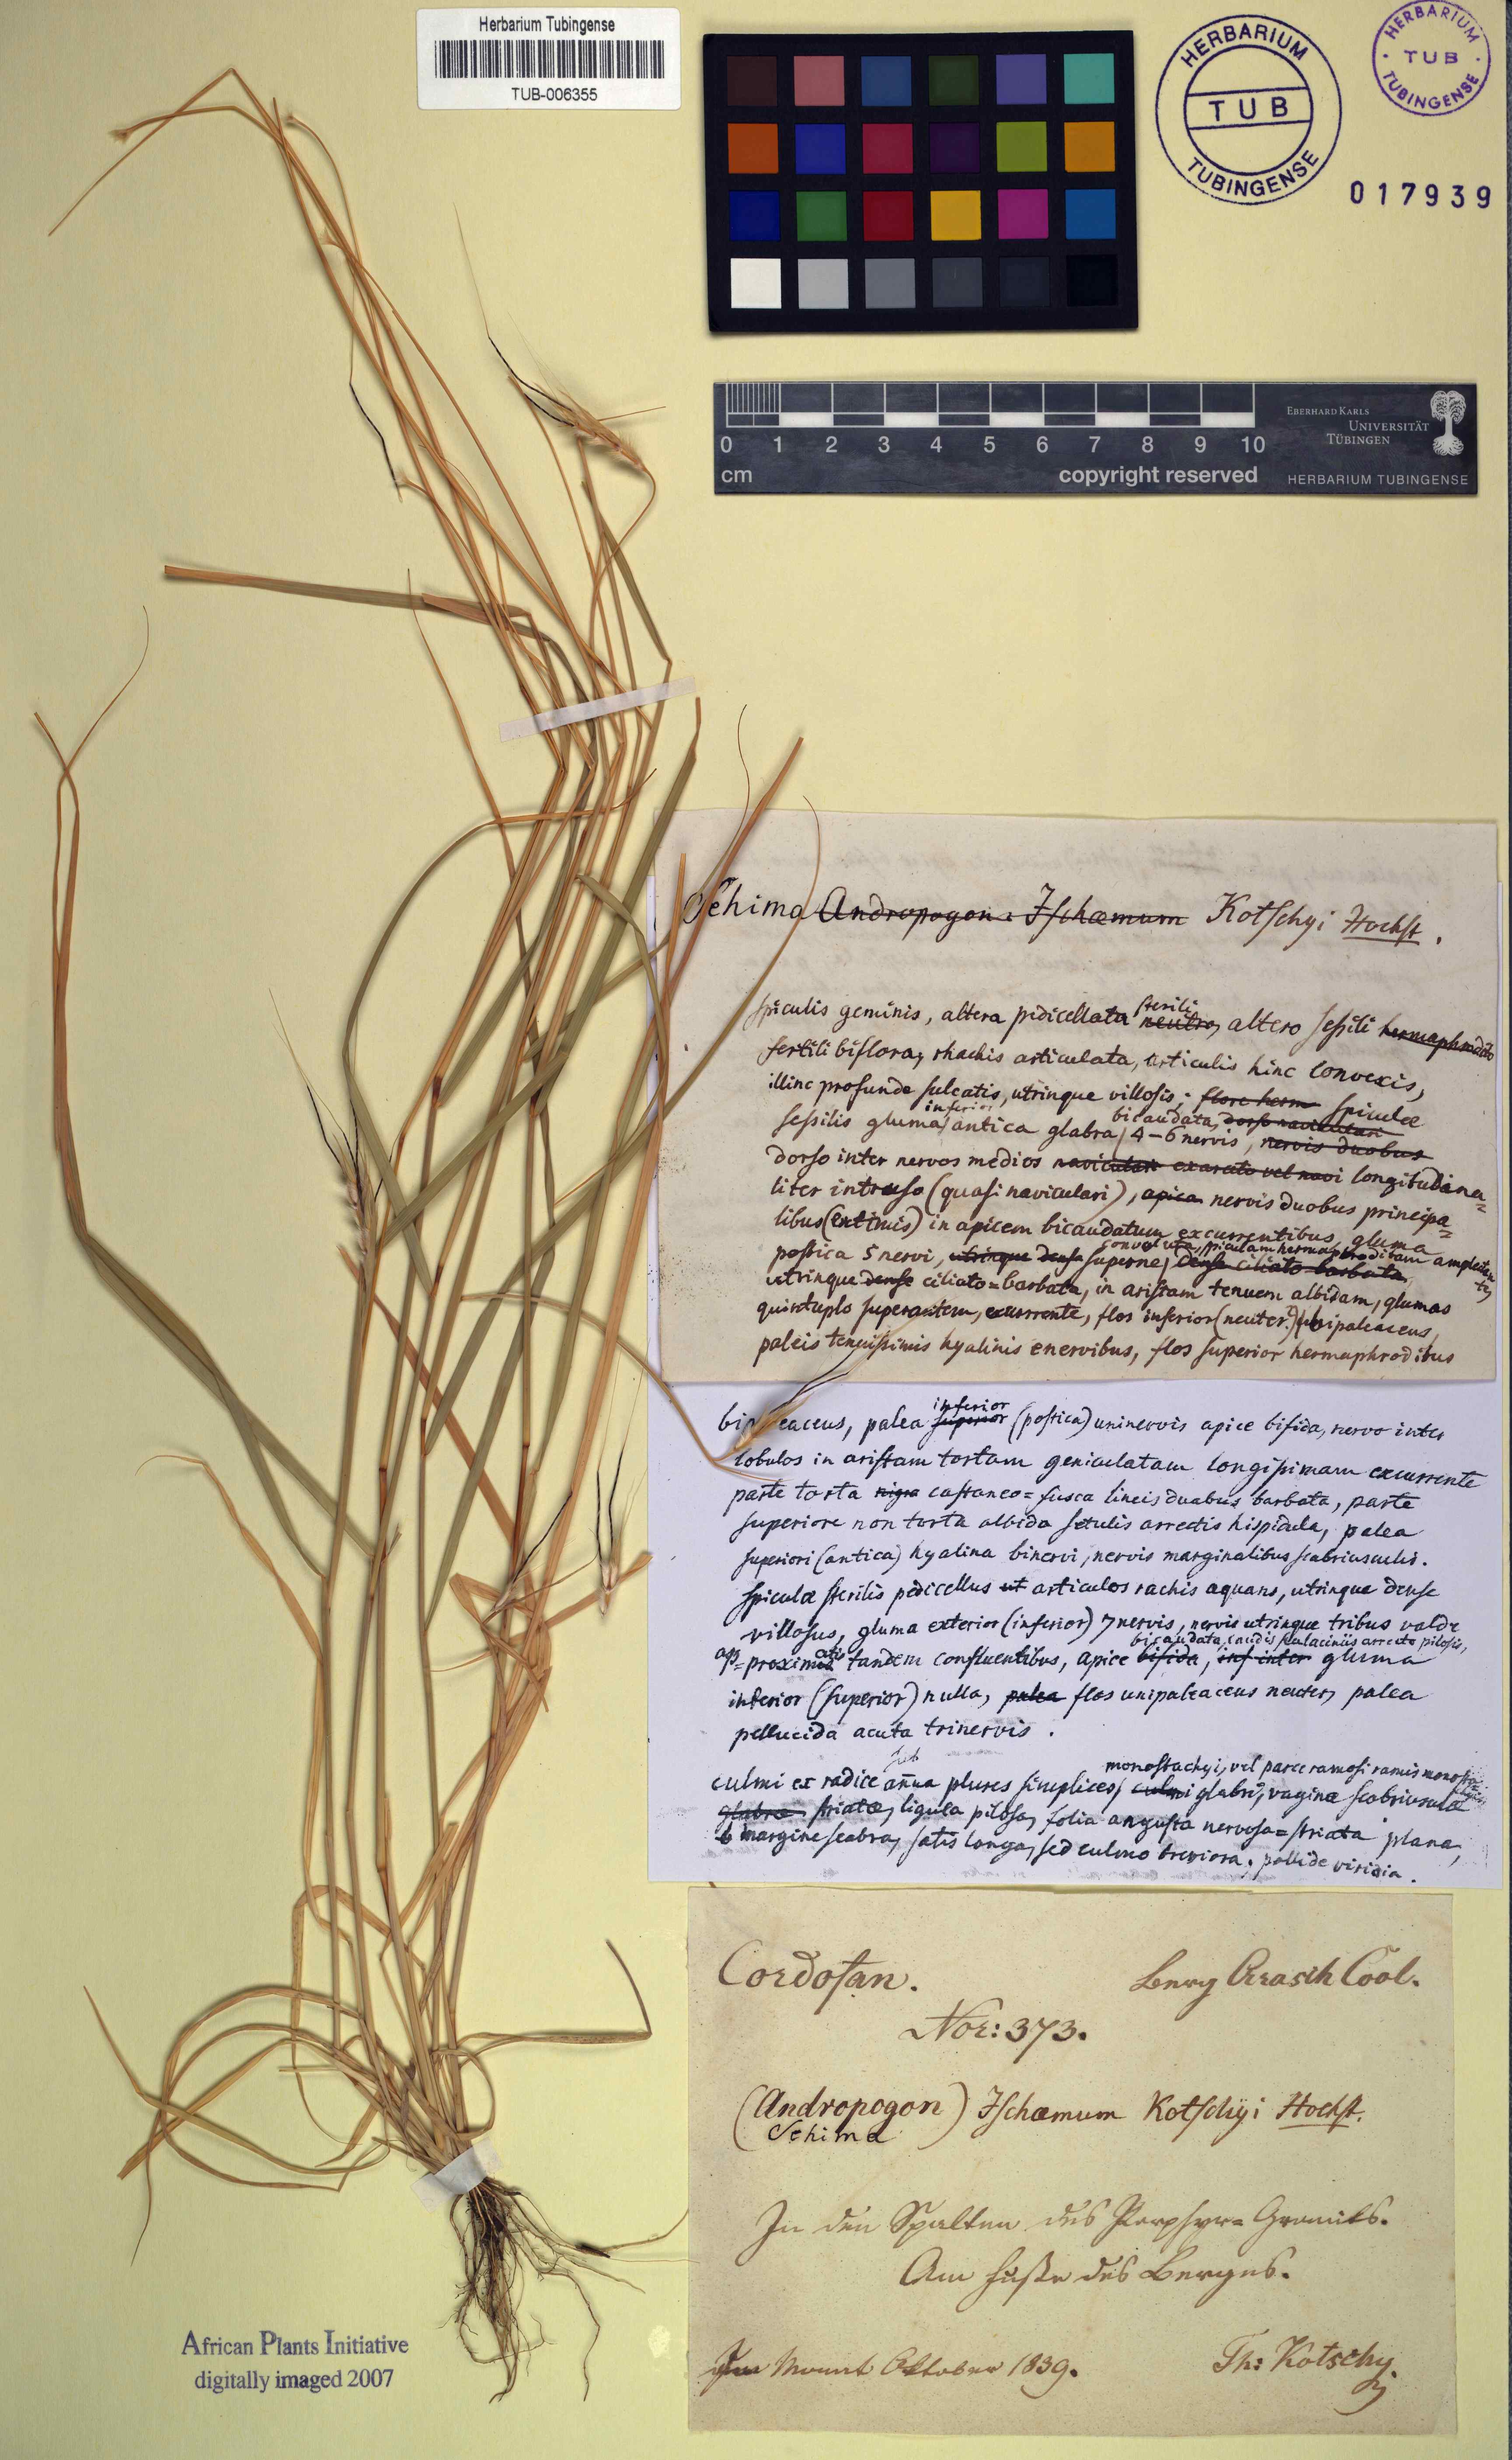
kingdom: Plantae
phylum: Tracheophyta
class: Liliopsida
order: Poales
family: Poaceae
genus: Sehima
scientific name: Sehima nervosa
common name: Rat-tail grass
